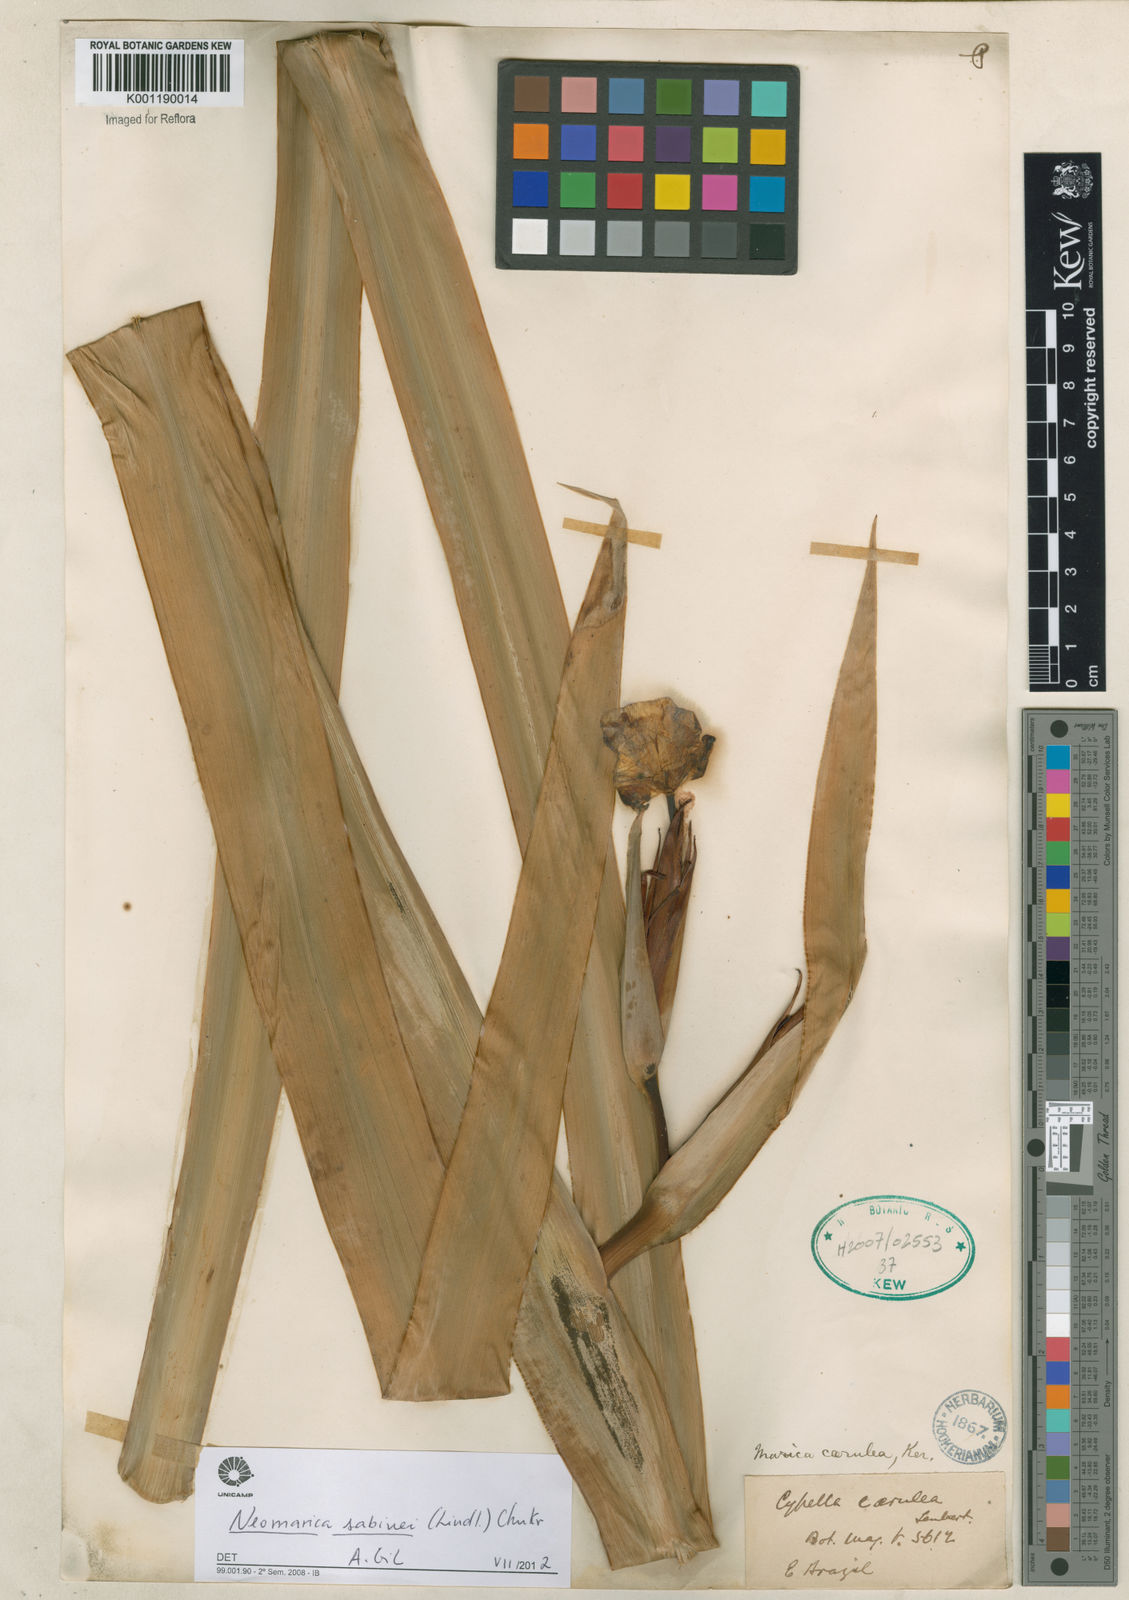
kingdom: Plantae
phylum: Tracheophyta
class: Liliopsida
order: Asparagales
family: Iridaceae
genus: Trimezia
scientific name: Trimezia sabini
